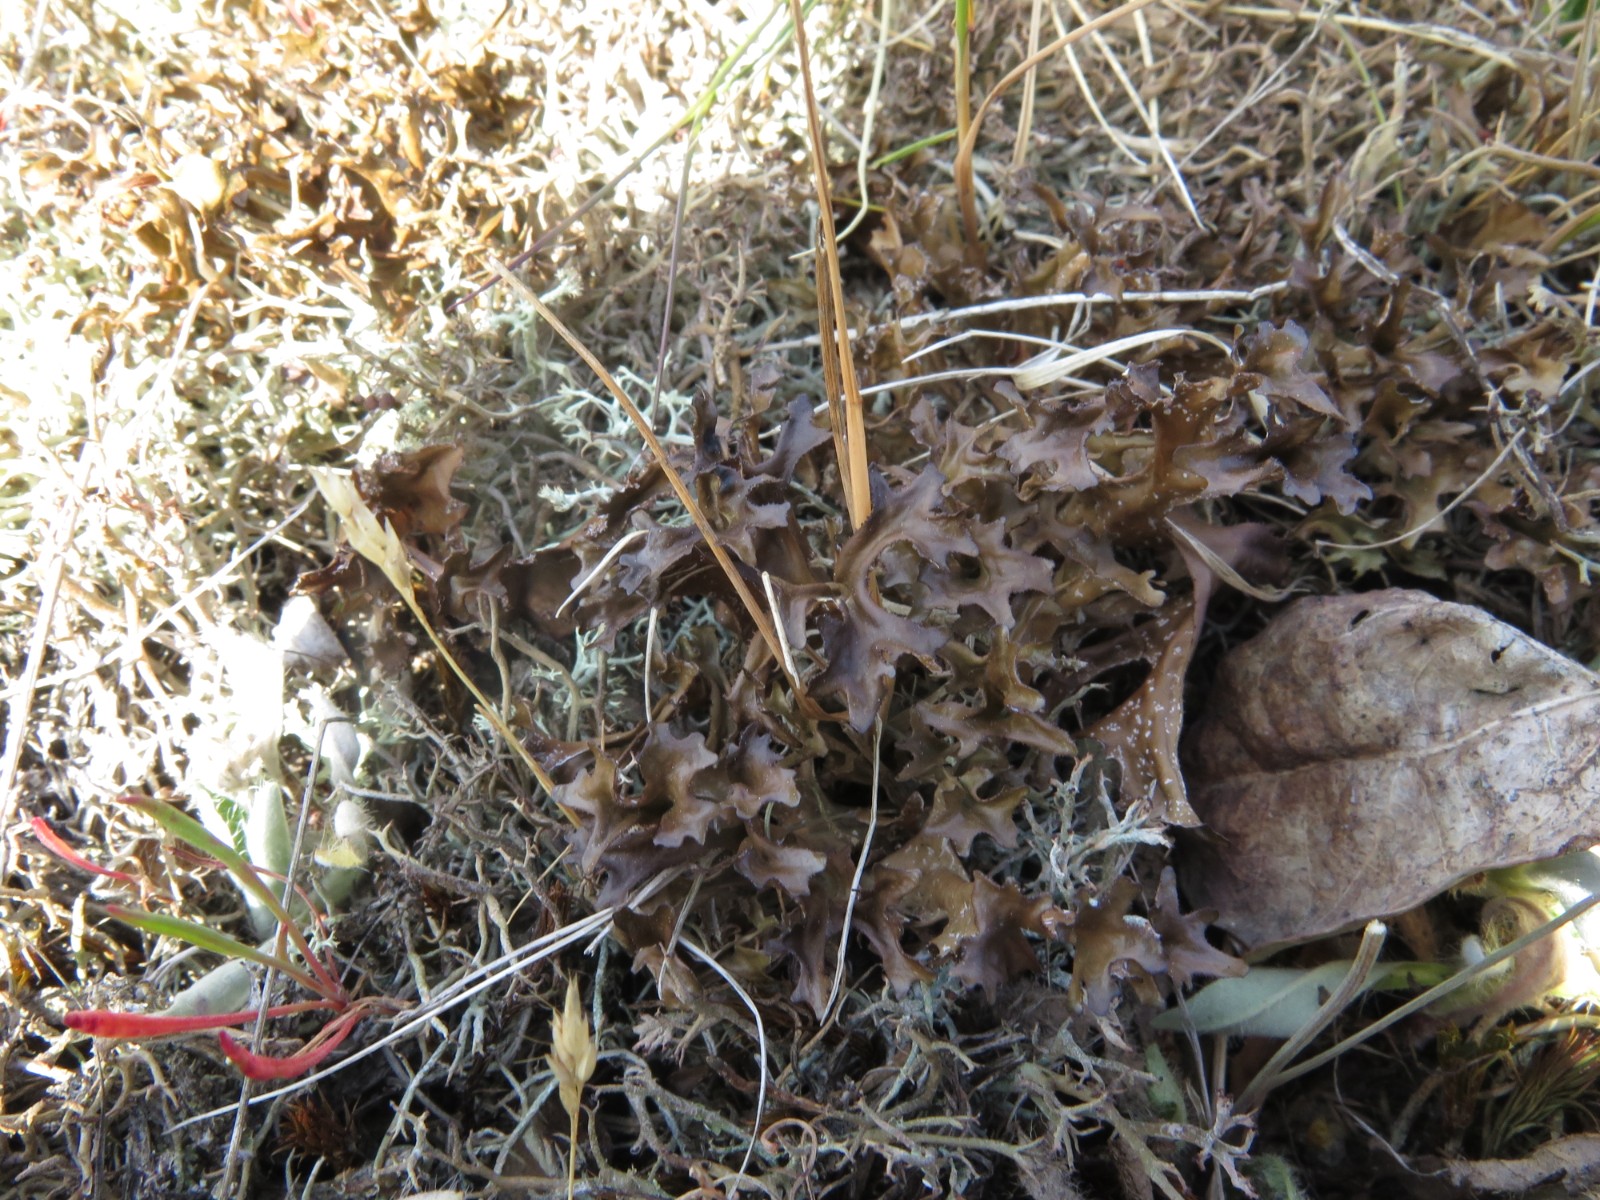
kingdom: Fungi
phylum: Ascomycota
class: Lecanoromycetes
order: Lecanorales
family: Parmeliaceae
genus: Cetraria
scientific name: Cetraria islandica
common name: islandsk kruslav
